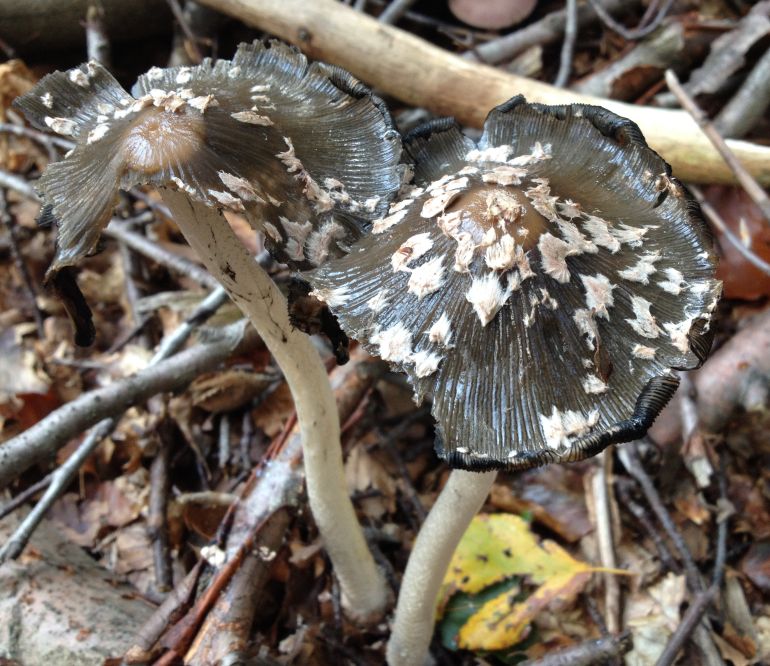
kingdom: Fungi
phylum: Basidiomycota
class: Agaricomycetes
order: Agaricales
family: Psathyrellaceae
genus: Coprinopsis
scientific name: Coprinopsis picacea
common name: skade-blækhat
